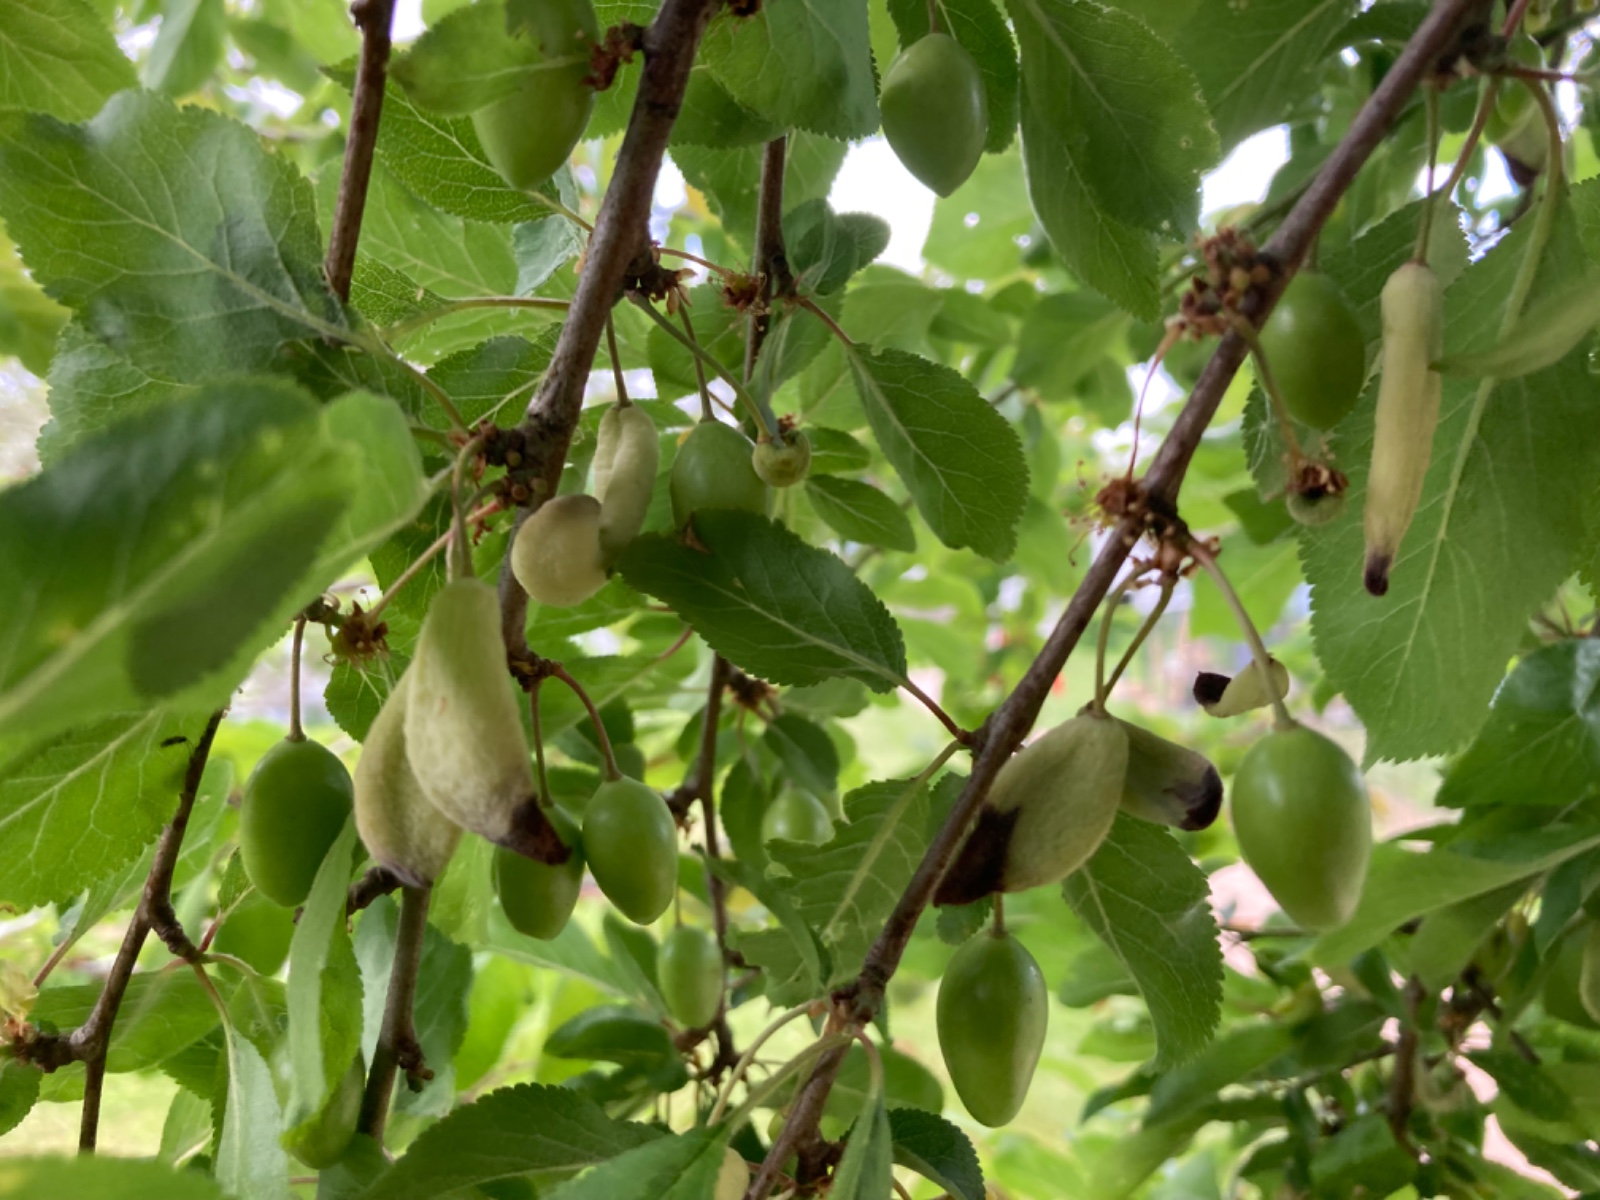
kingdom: Fungi
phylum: Ascomycota
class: Taphrinomycetes
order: Taphrinales
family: Taphrinaceae
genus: Taphrina
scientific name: Taphrina pruni
